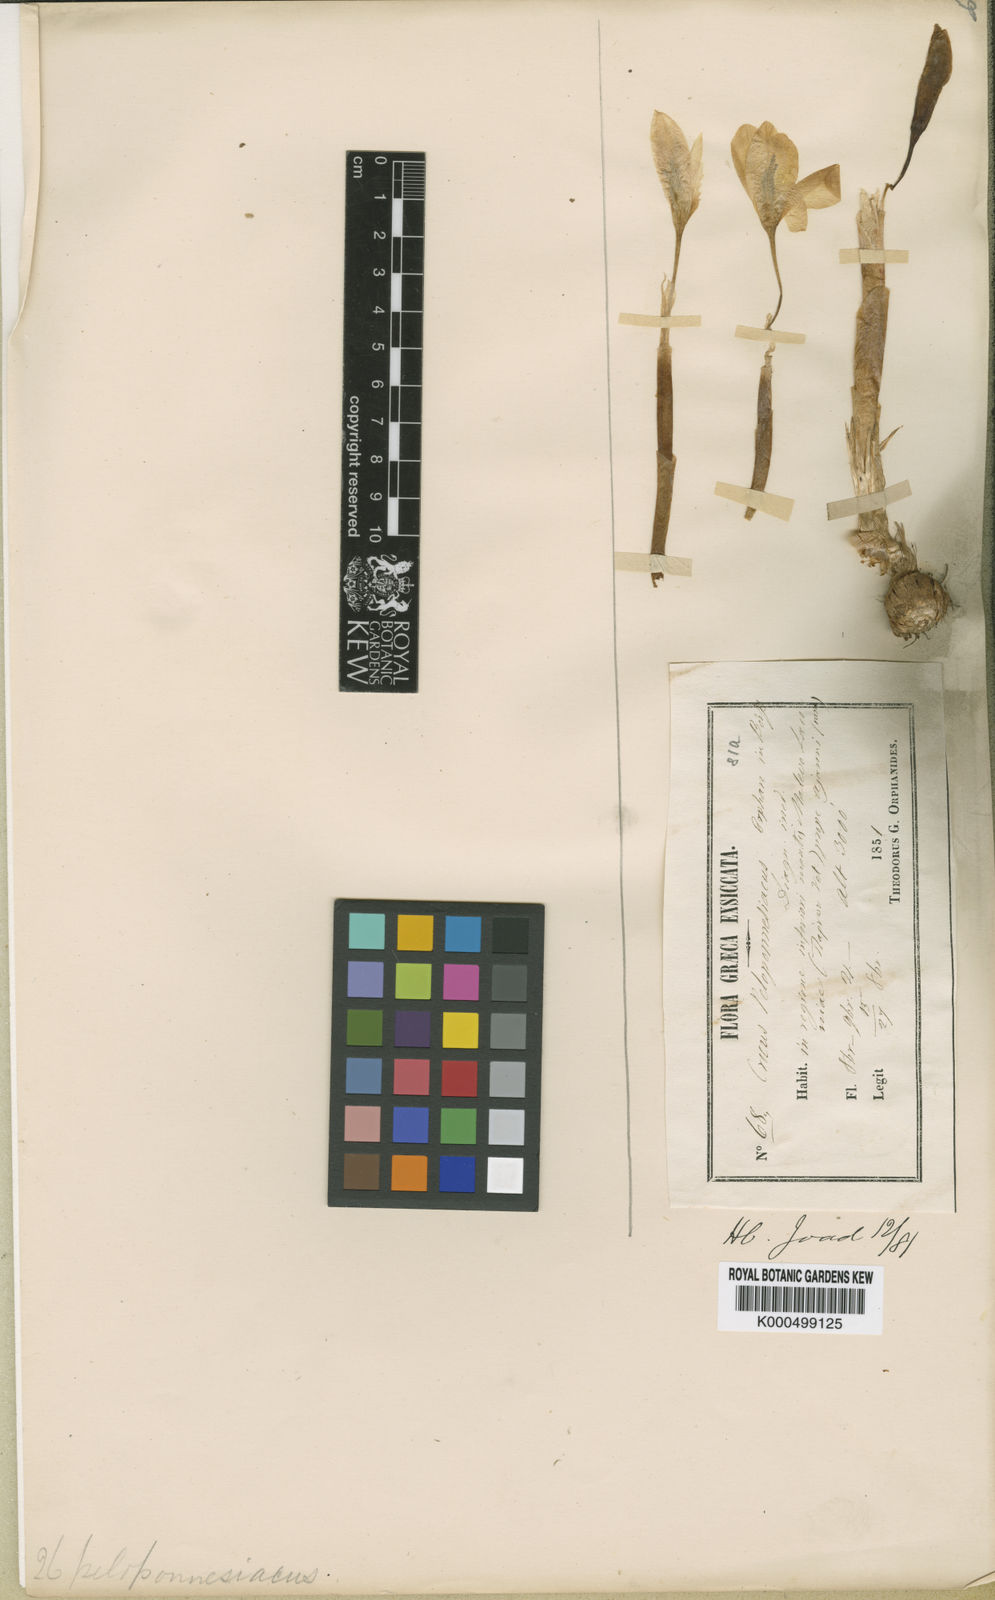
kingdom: Plantae
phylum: Tracheophyta
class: Liliopsida
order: Asparagales
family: Iridaceae
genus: Crocus
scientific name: Crocus hadriaticus
